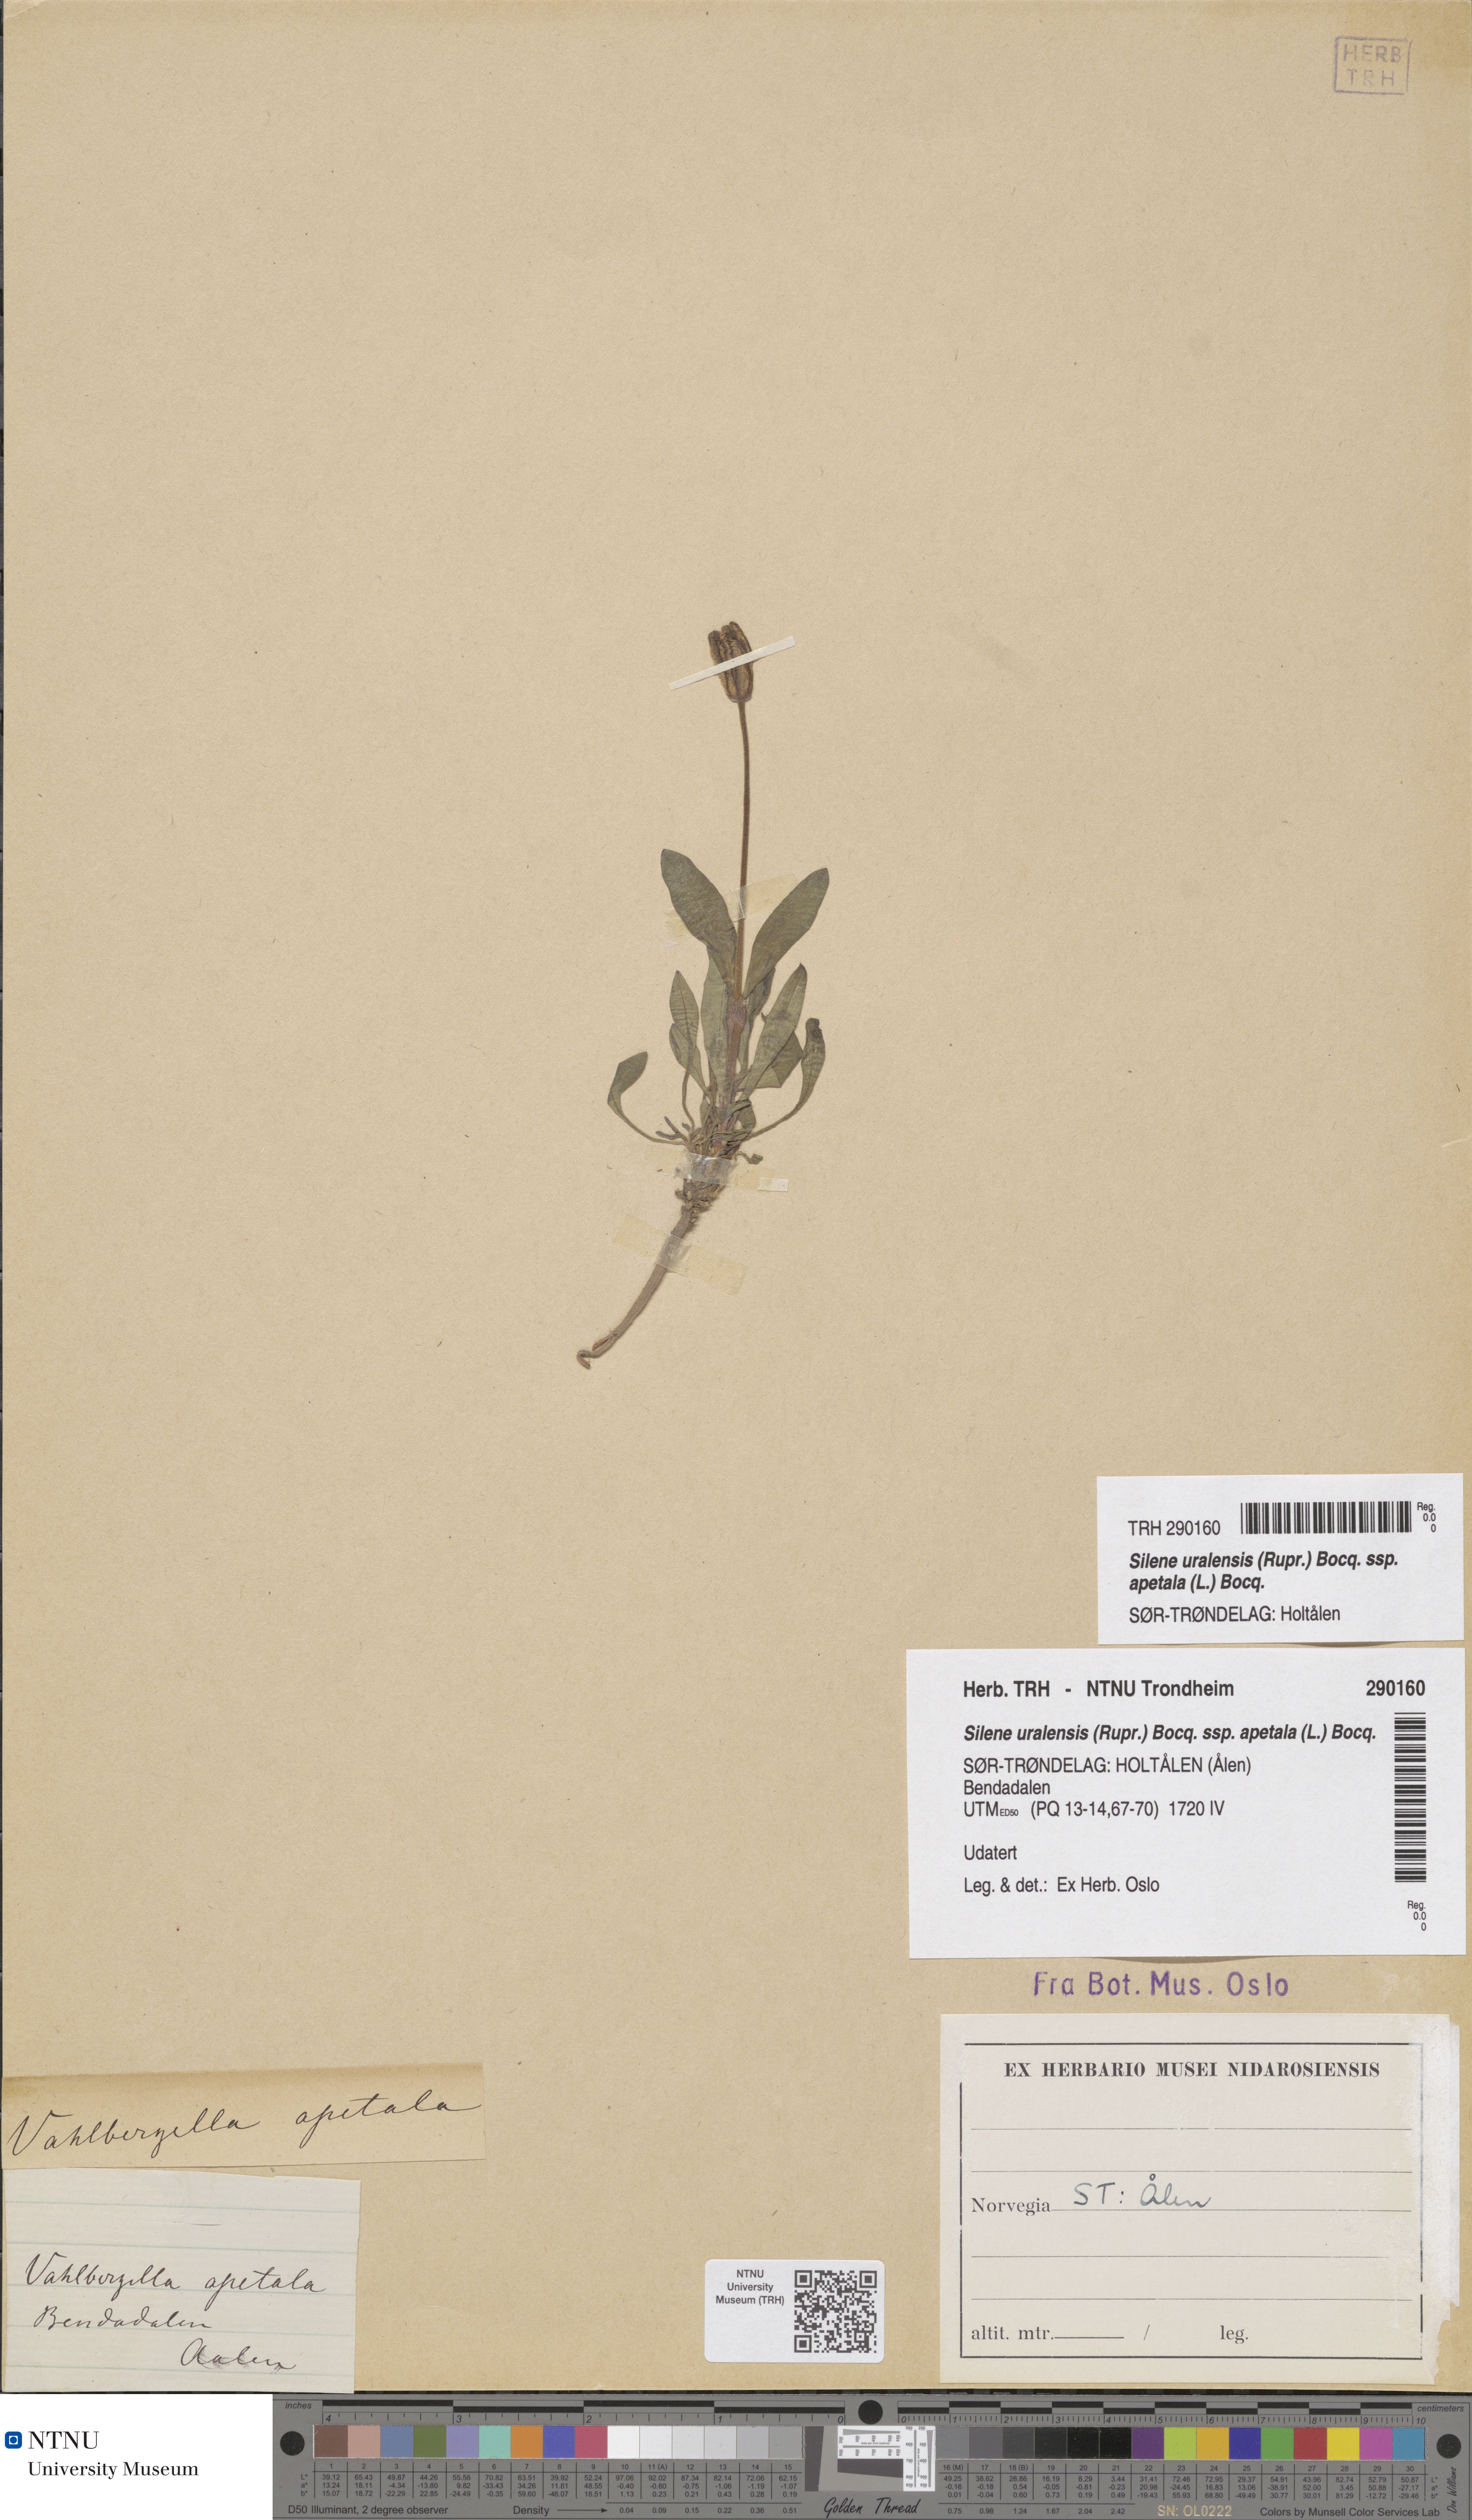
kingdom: Plantae
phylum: Tracheophyta
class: Magnoliopsida
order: Caryophyllales
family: Caryophyllaceae
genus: Silene
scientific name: Silene wahlbergella
